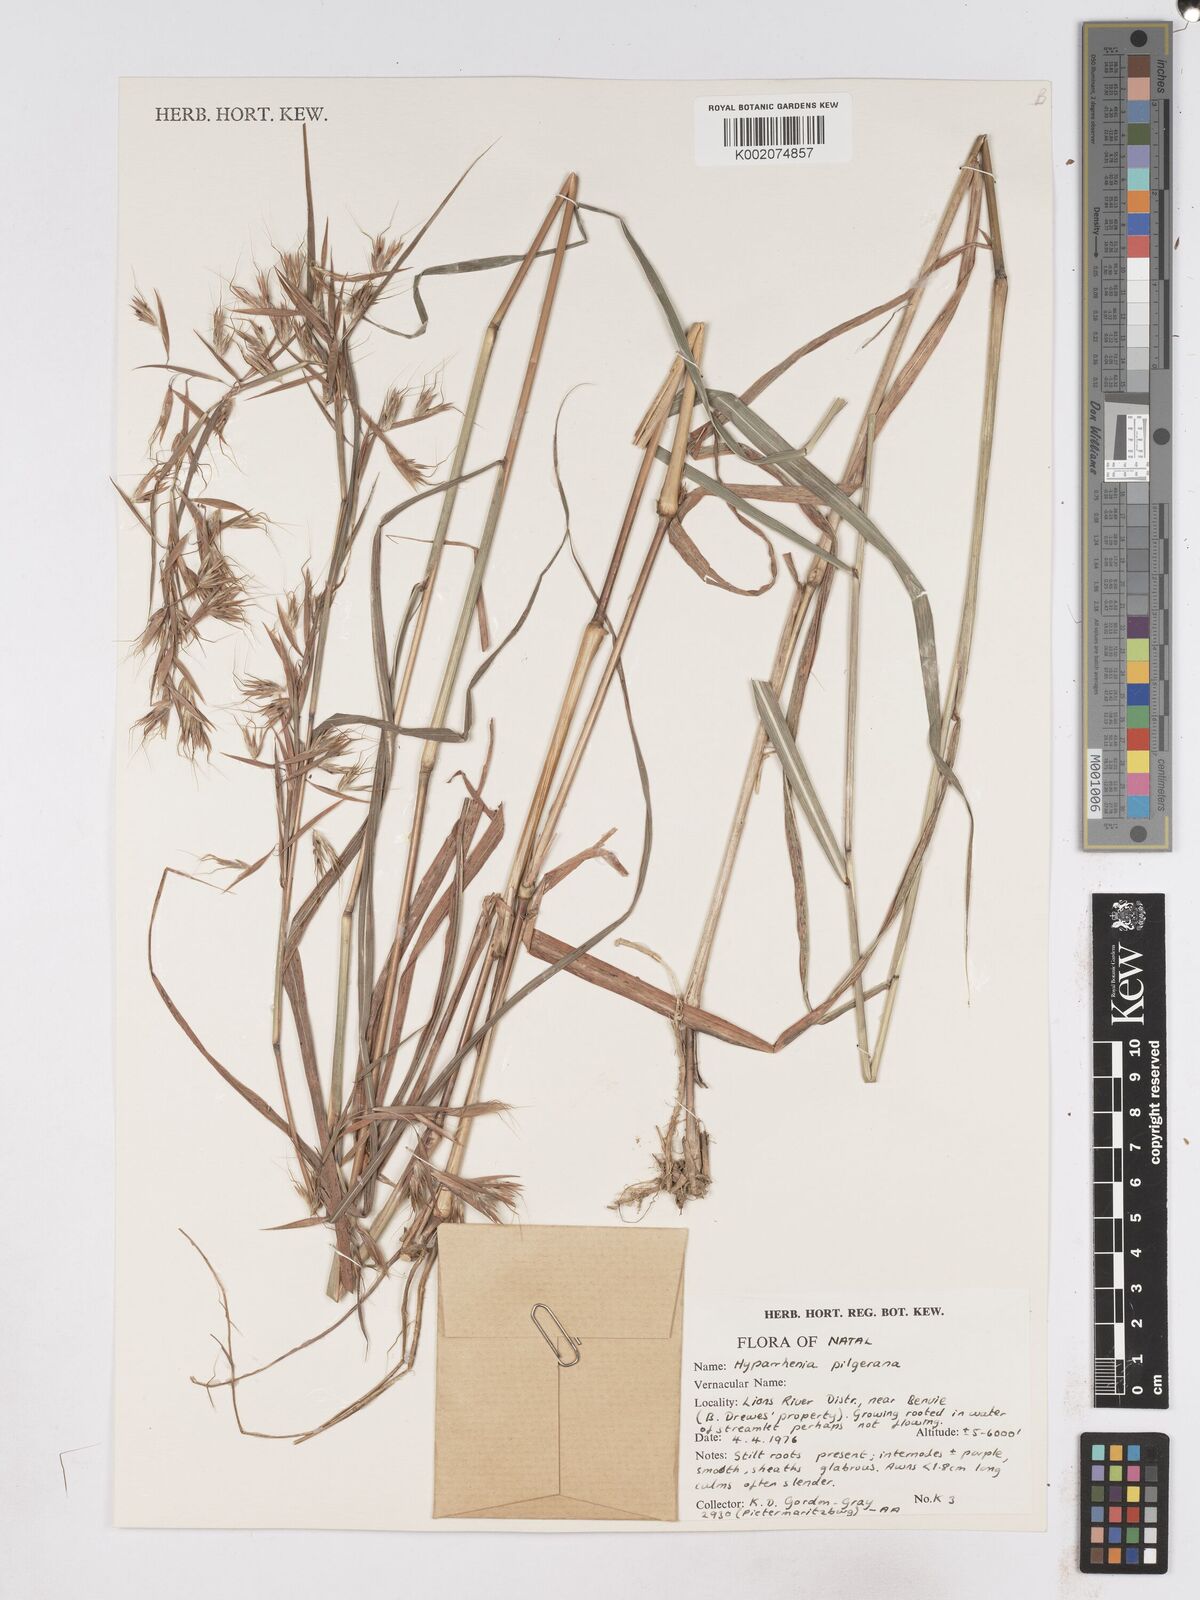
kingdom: Plantae
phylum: Tracheophyta
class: Liliopsida
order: Poales
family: Poaceae
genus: Hyparrhenia
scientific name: Hyparrhenia pilgeriana
